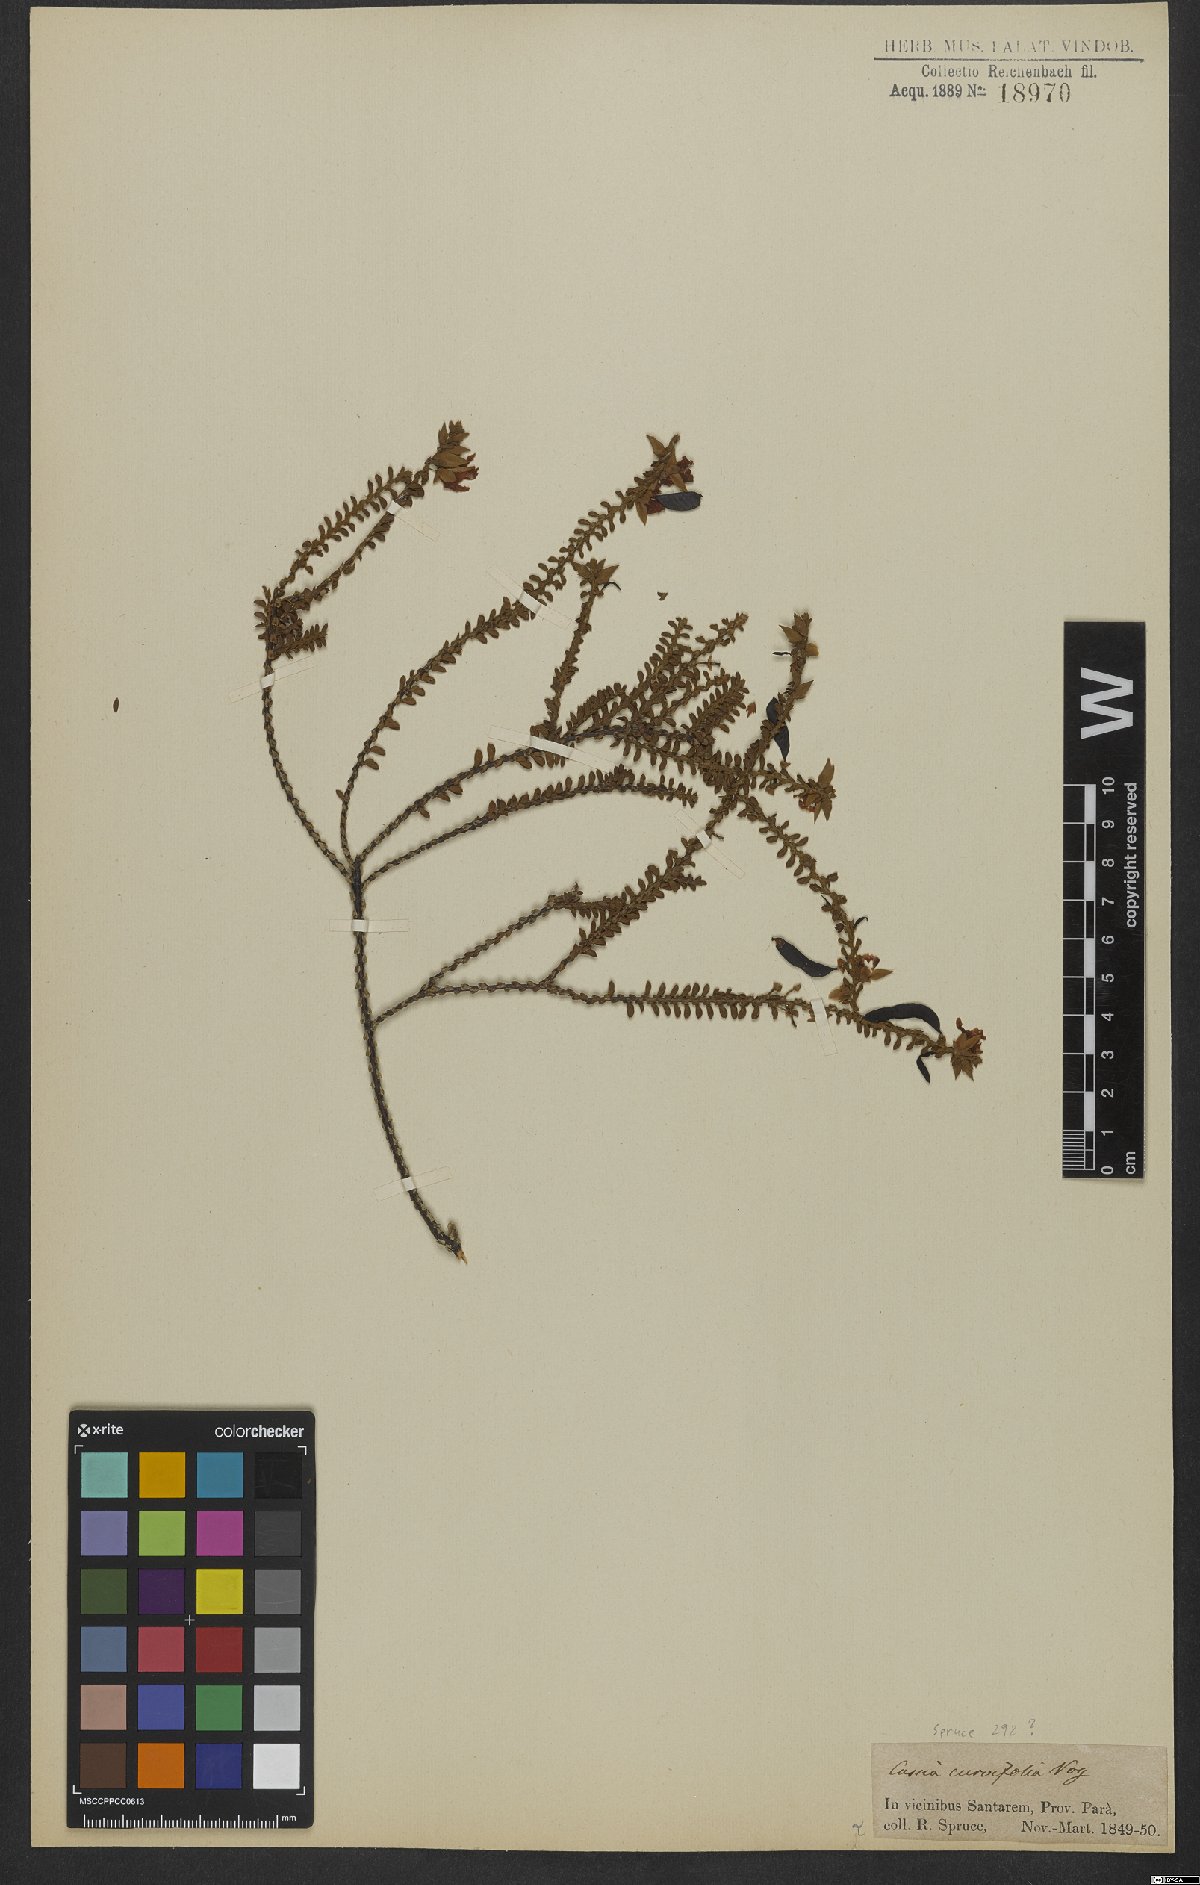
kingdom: Plantae
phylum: Tracheophyta
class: Magnoliopsida
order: Fabales
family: Fabaceae
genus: Chamaecrista
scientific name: Chamaecrista ramosa
